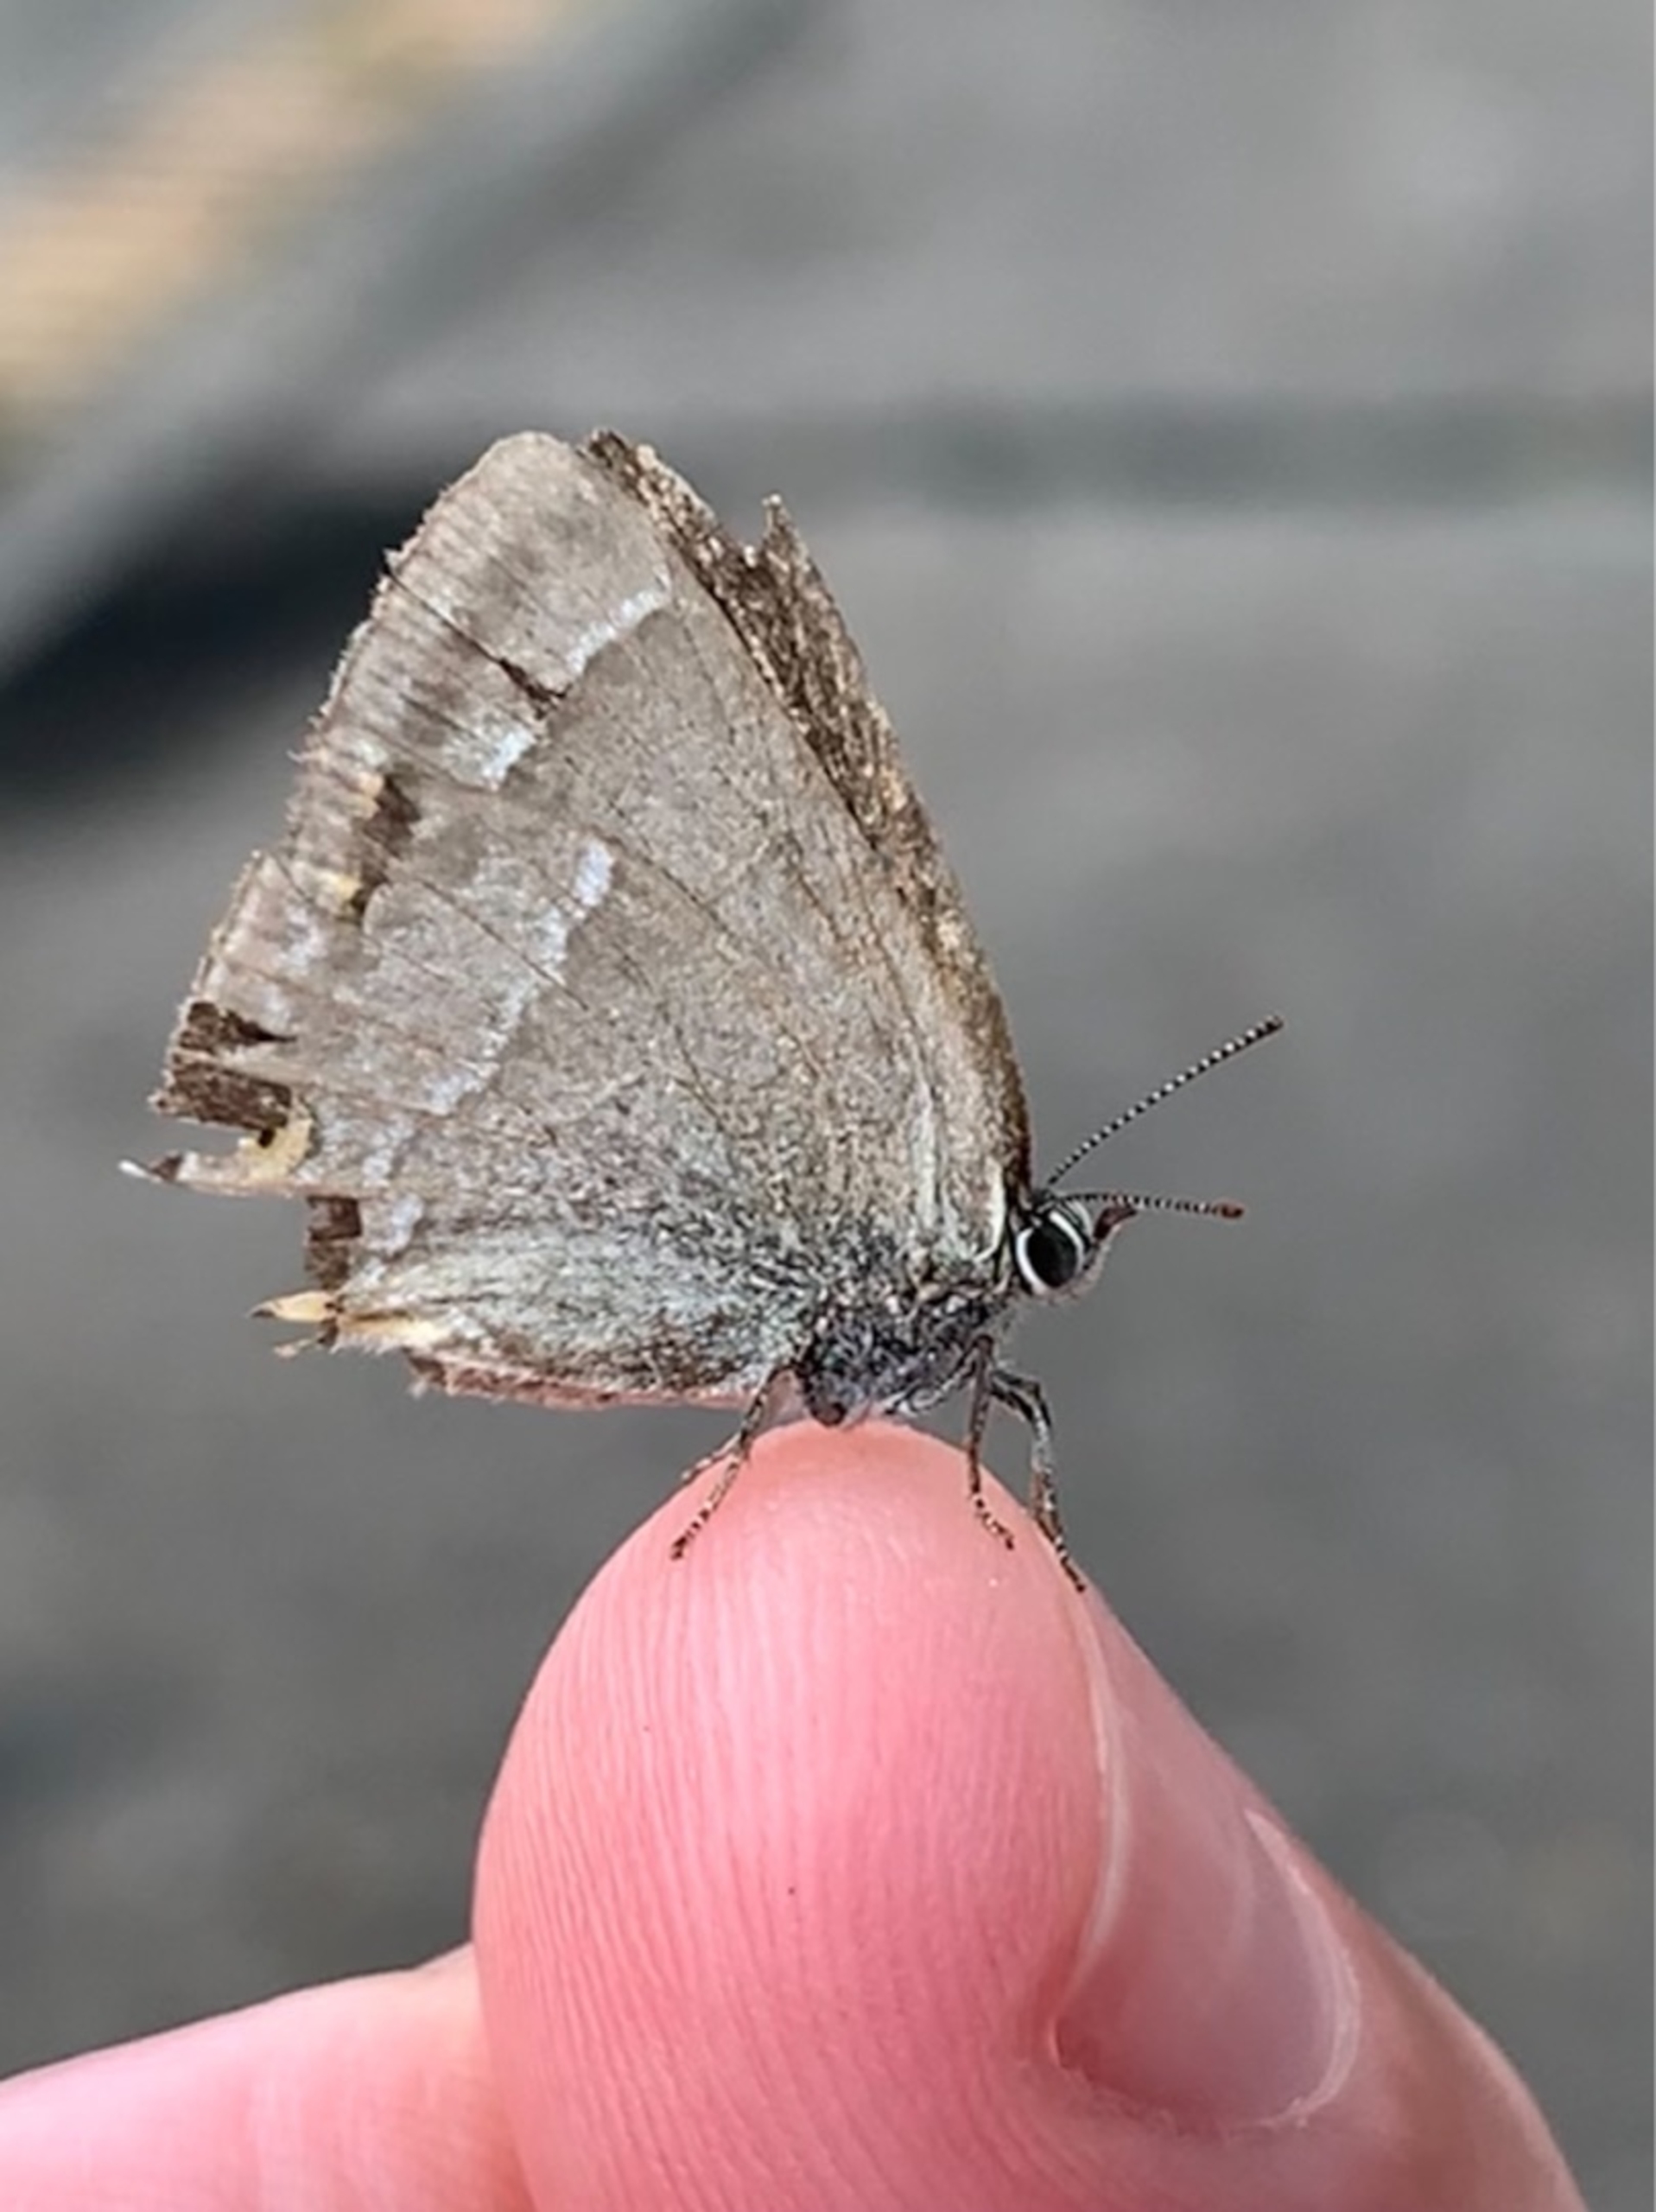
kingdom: Animalia
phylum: Arthropoda
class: Insecta
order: Lepidoptera
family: Lycaenidae
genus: Quercusia
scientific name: Quercusia quercus
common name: Blåhale
